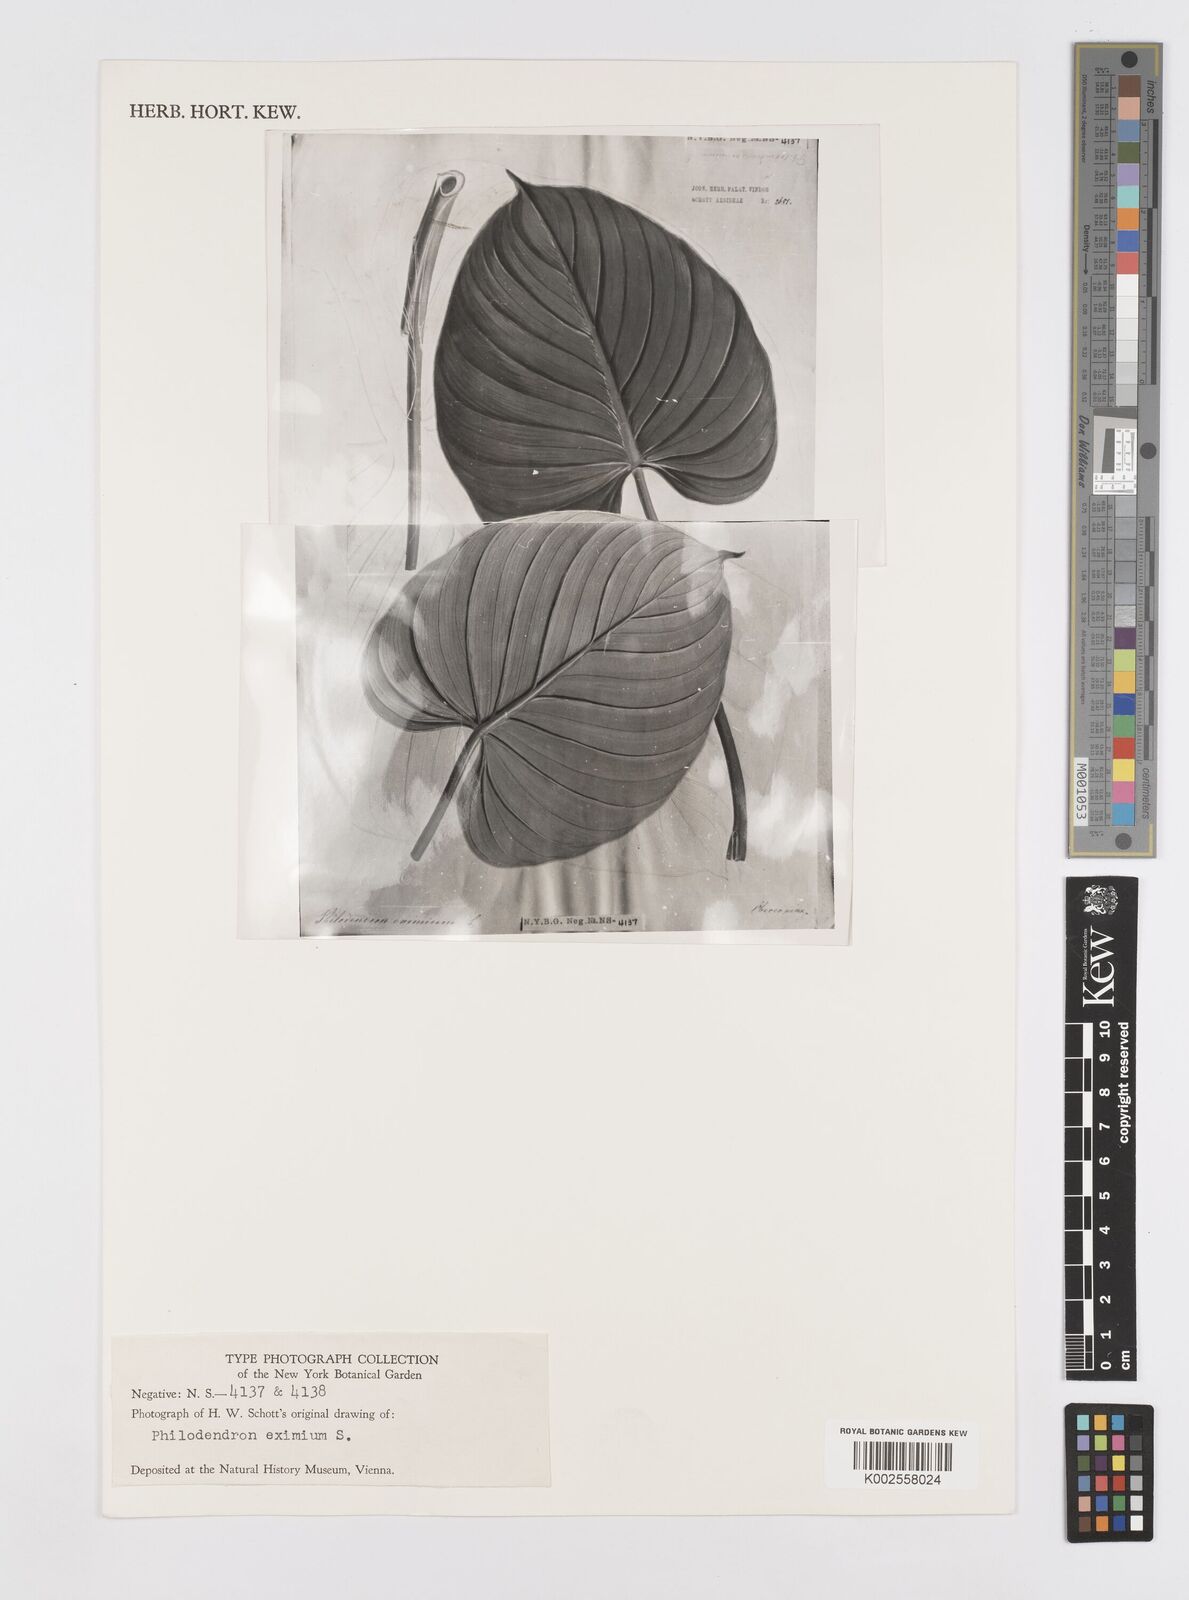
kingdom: Plantae
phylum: Tracheophyta
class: Liliopsida
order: Alismatales
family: Araceae
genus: Philodendron
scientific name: Philodendron eximium
